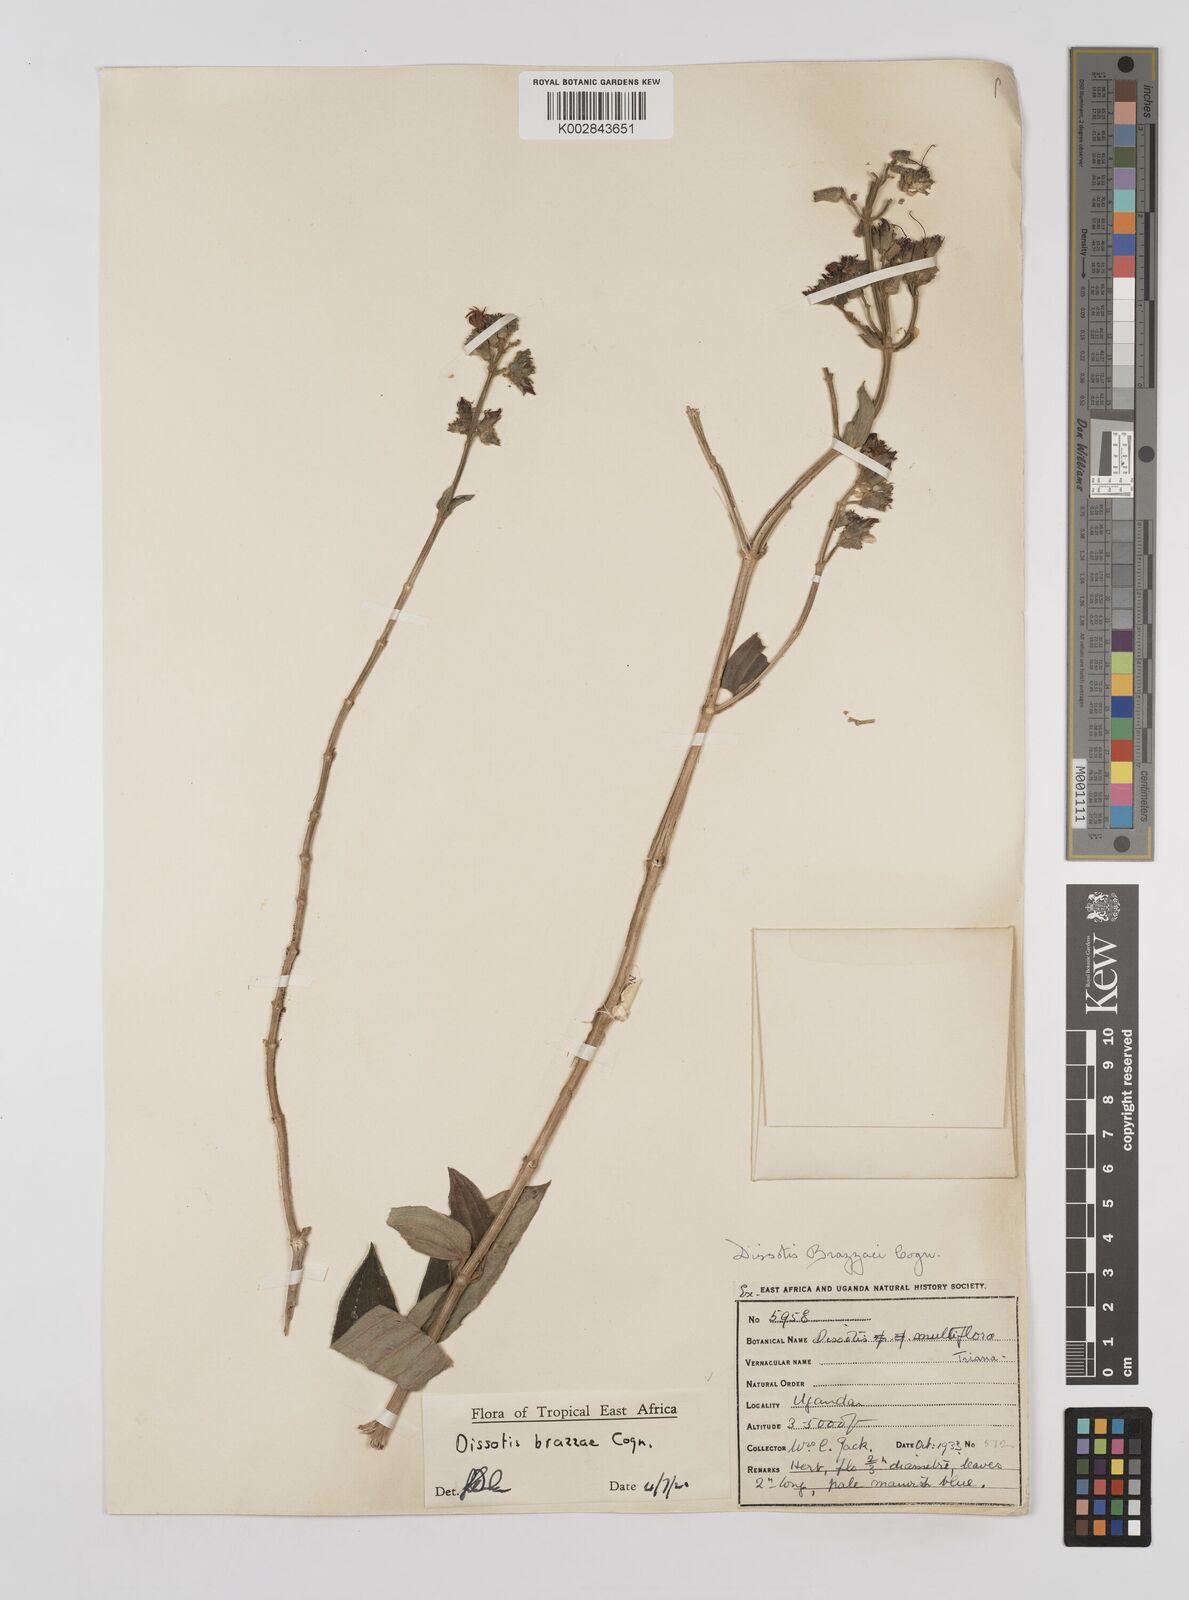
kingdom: Plantae
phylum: Tracheophyta
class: Magnoliopsida
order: Myrtales
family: Melastomataceae
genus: Dupineta
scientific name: Dupineta brazzae
